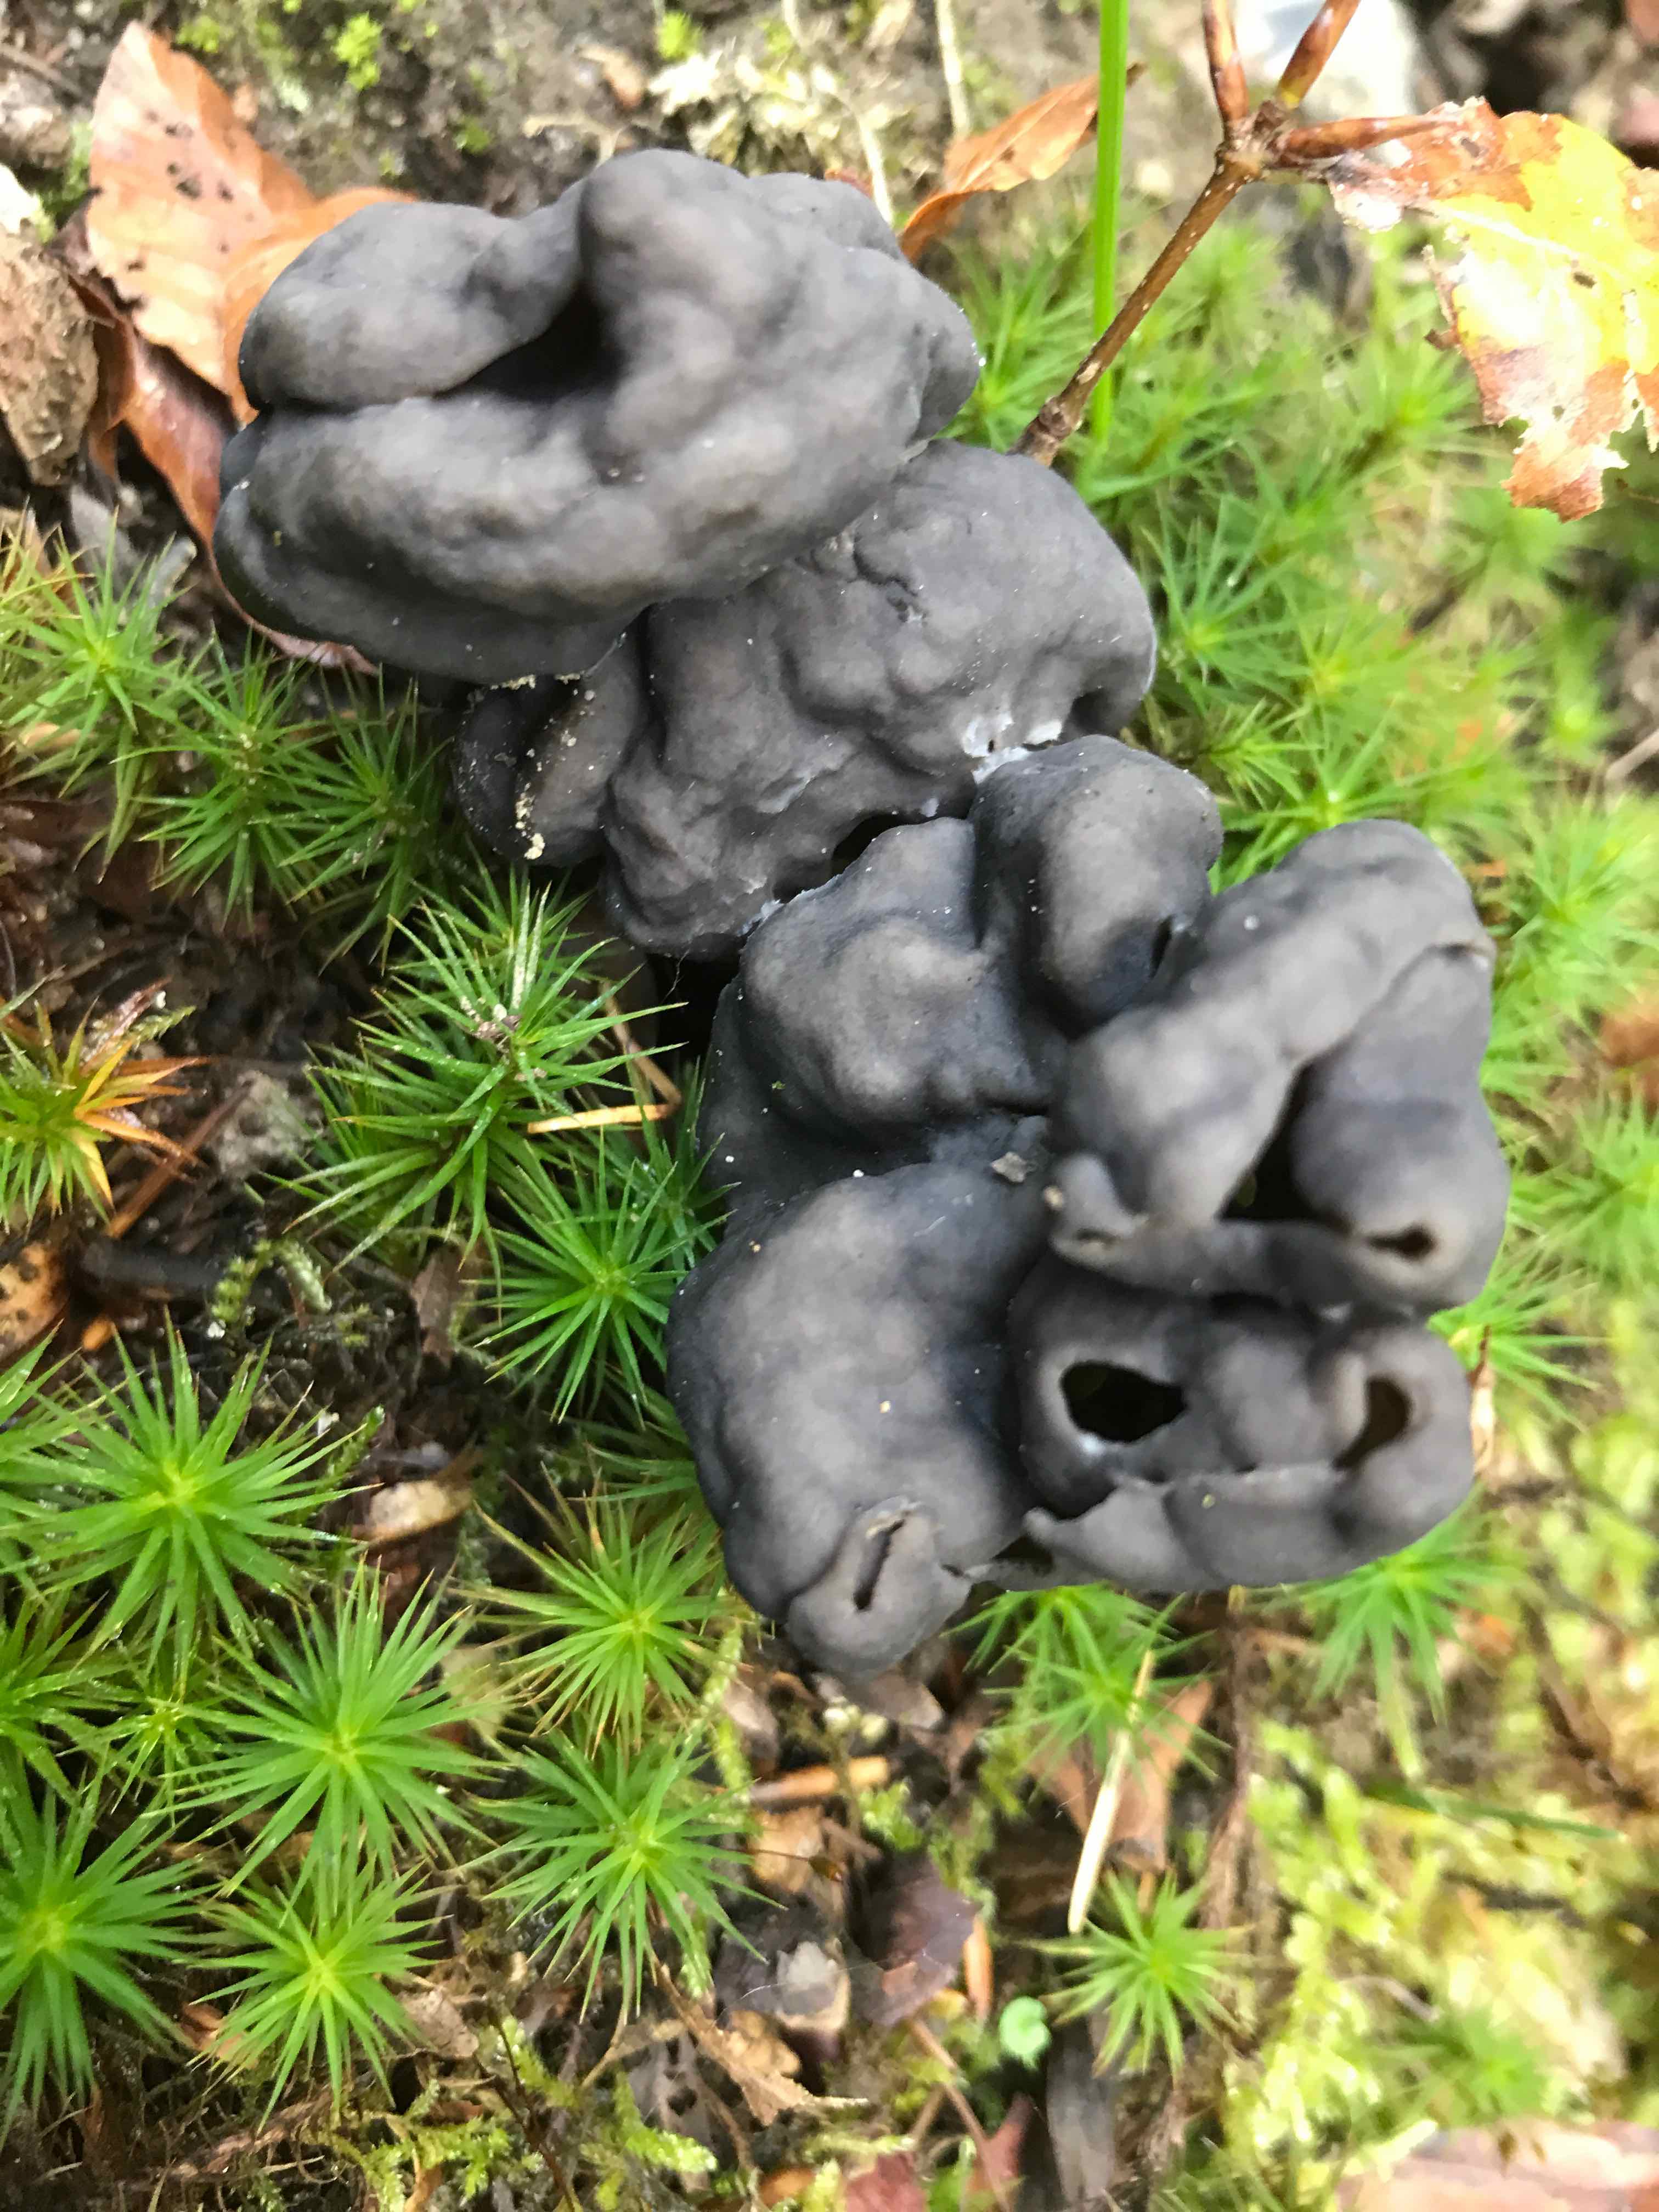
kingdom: Fungi
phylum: Ascomycota
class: Pezizomycetes
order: Pezizales
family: Helvellaceae
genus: Helvella
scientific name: Helvella lacunosa
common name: grubet foldhat
